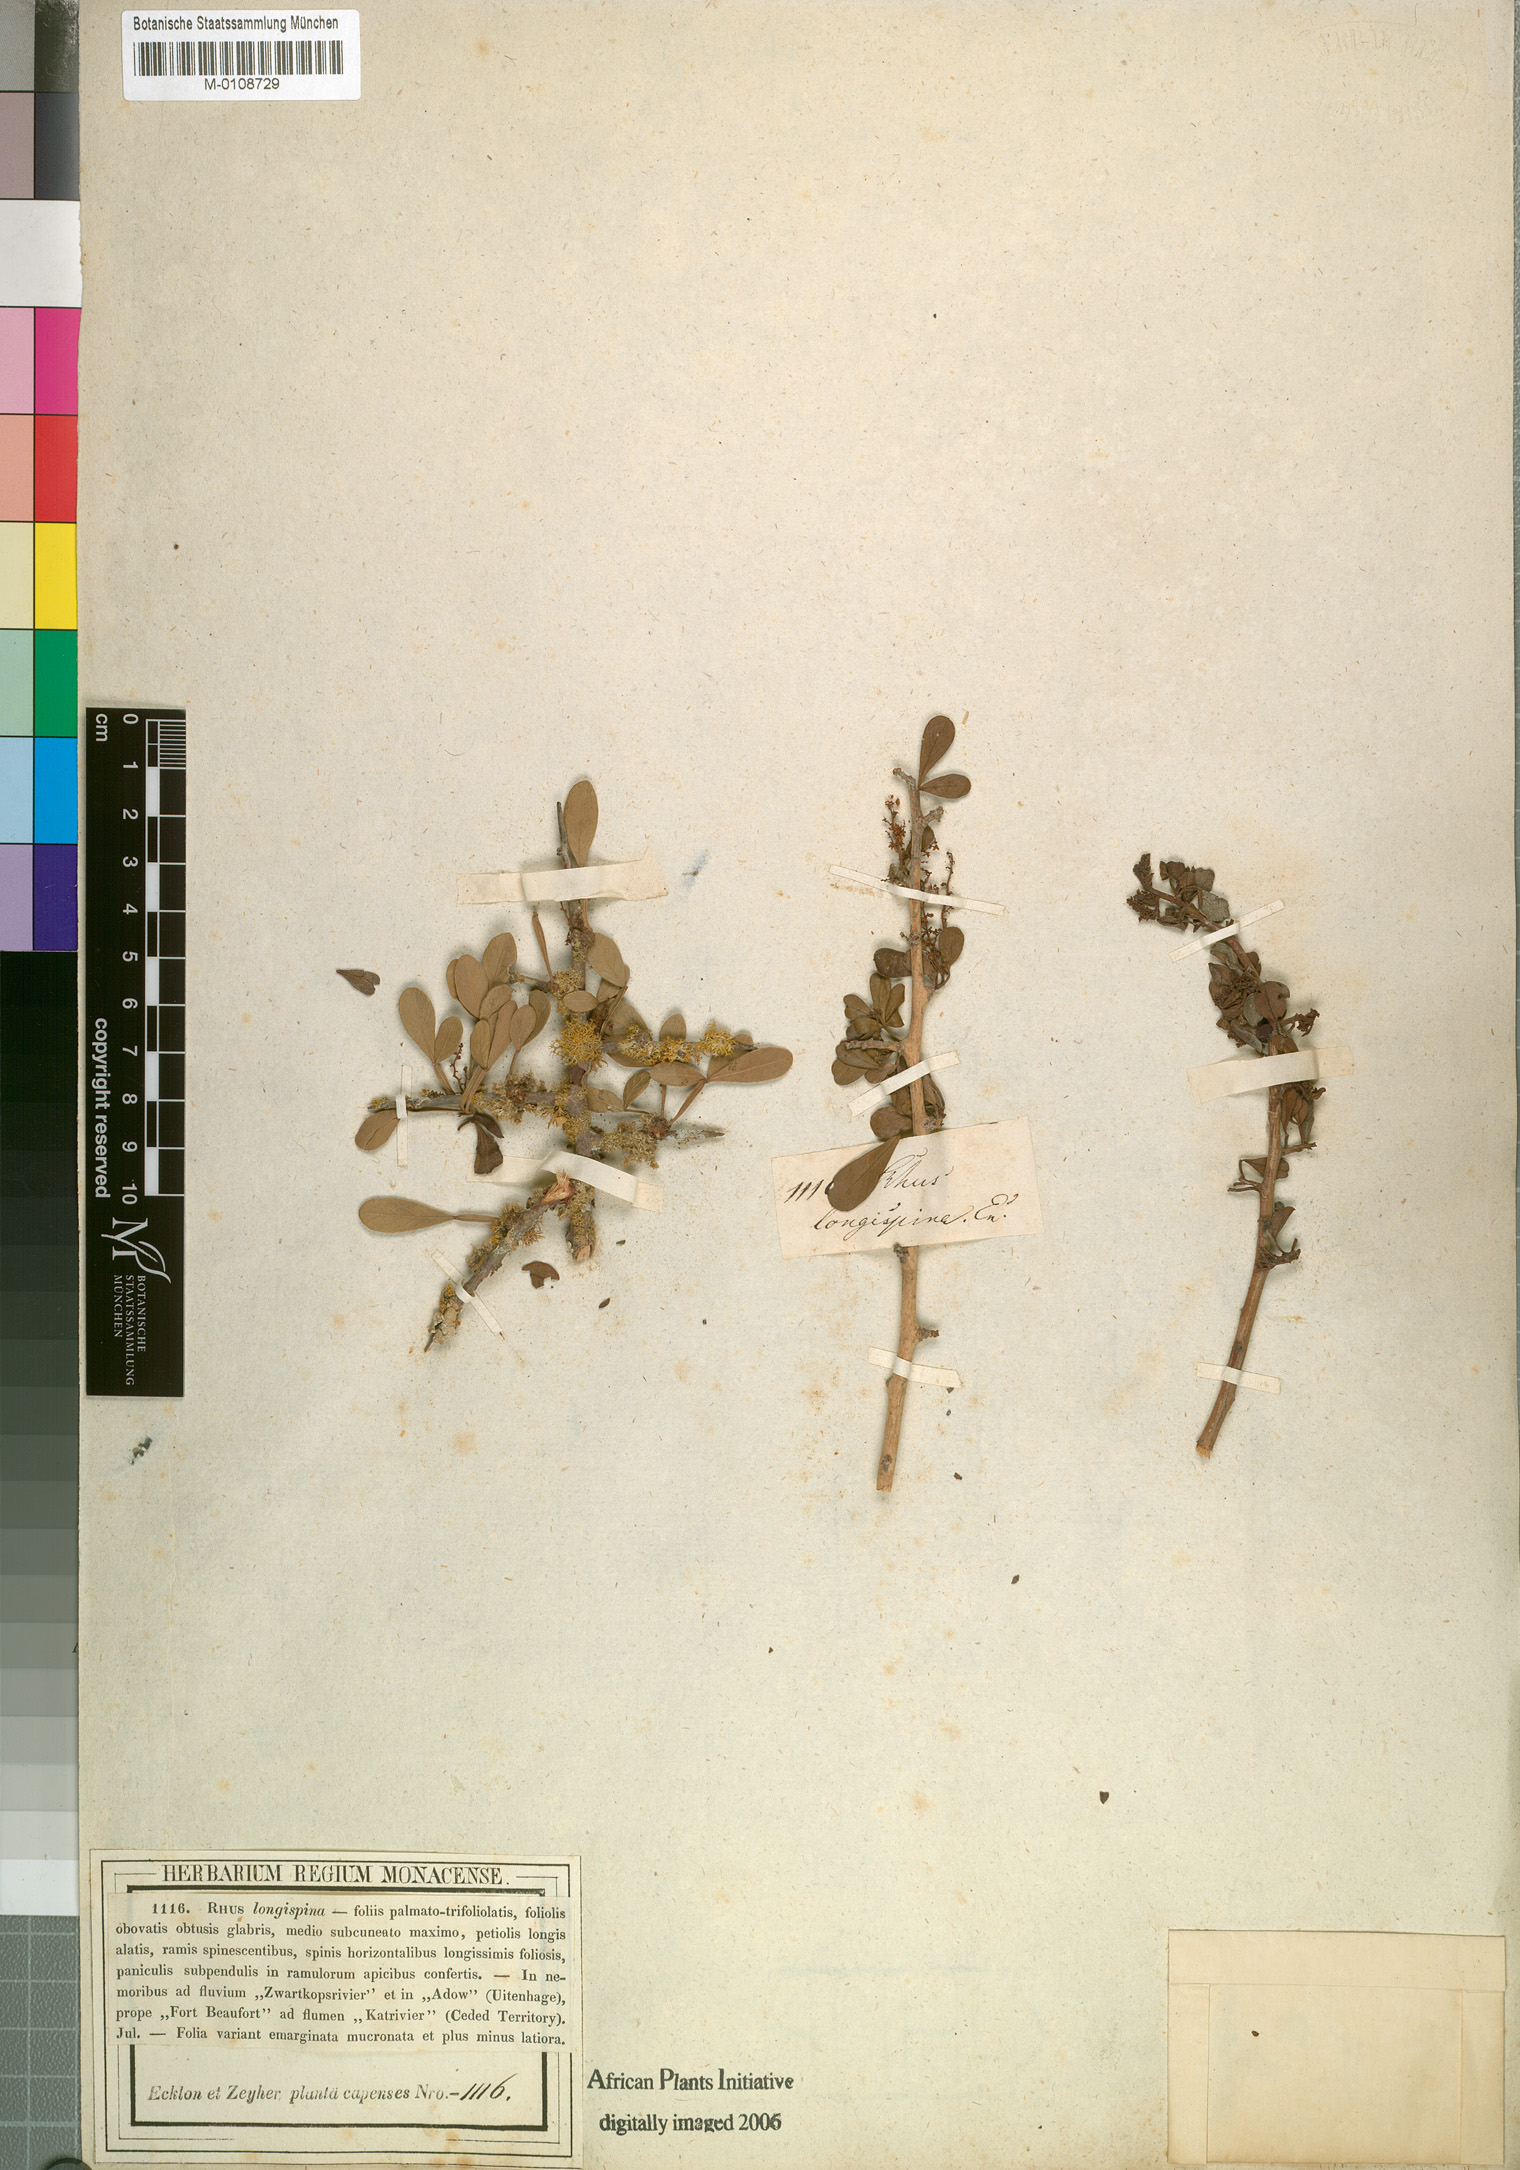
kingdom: Plantae
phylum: Tracheophyta
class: Magnoliopsida
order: Sapindales
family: Anacardiaceae
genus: Searsia
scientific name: Searsia longispina
